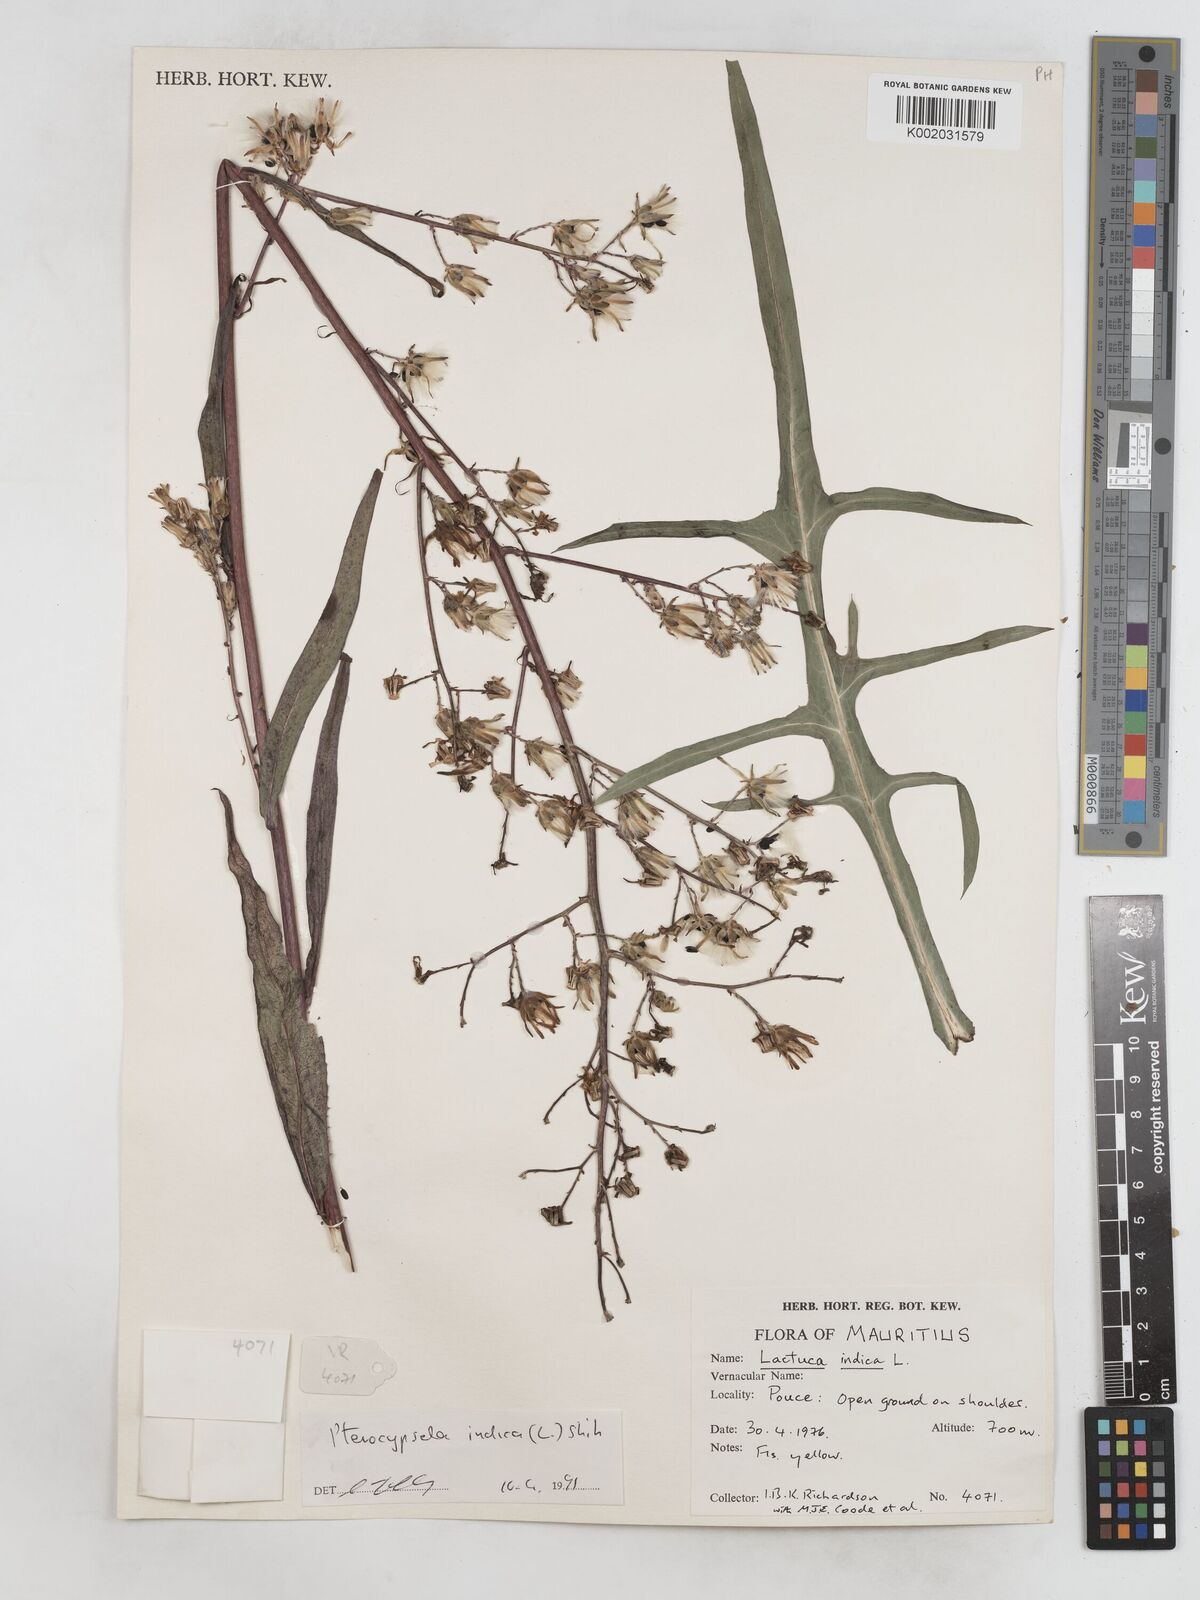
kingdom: Plantae
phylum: Tracheophyta
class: Magnoliopsida
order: Asterales
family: Asteraceae
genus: Lactuca
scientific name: Lactuca indica
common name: Wild lettuce
